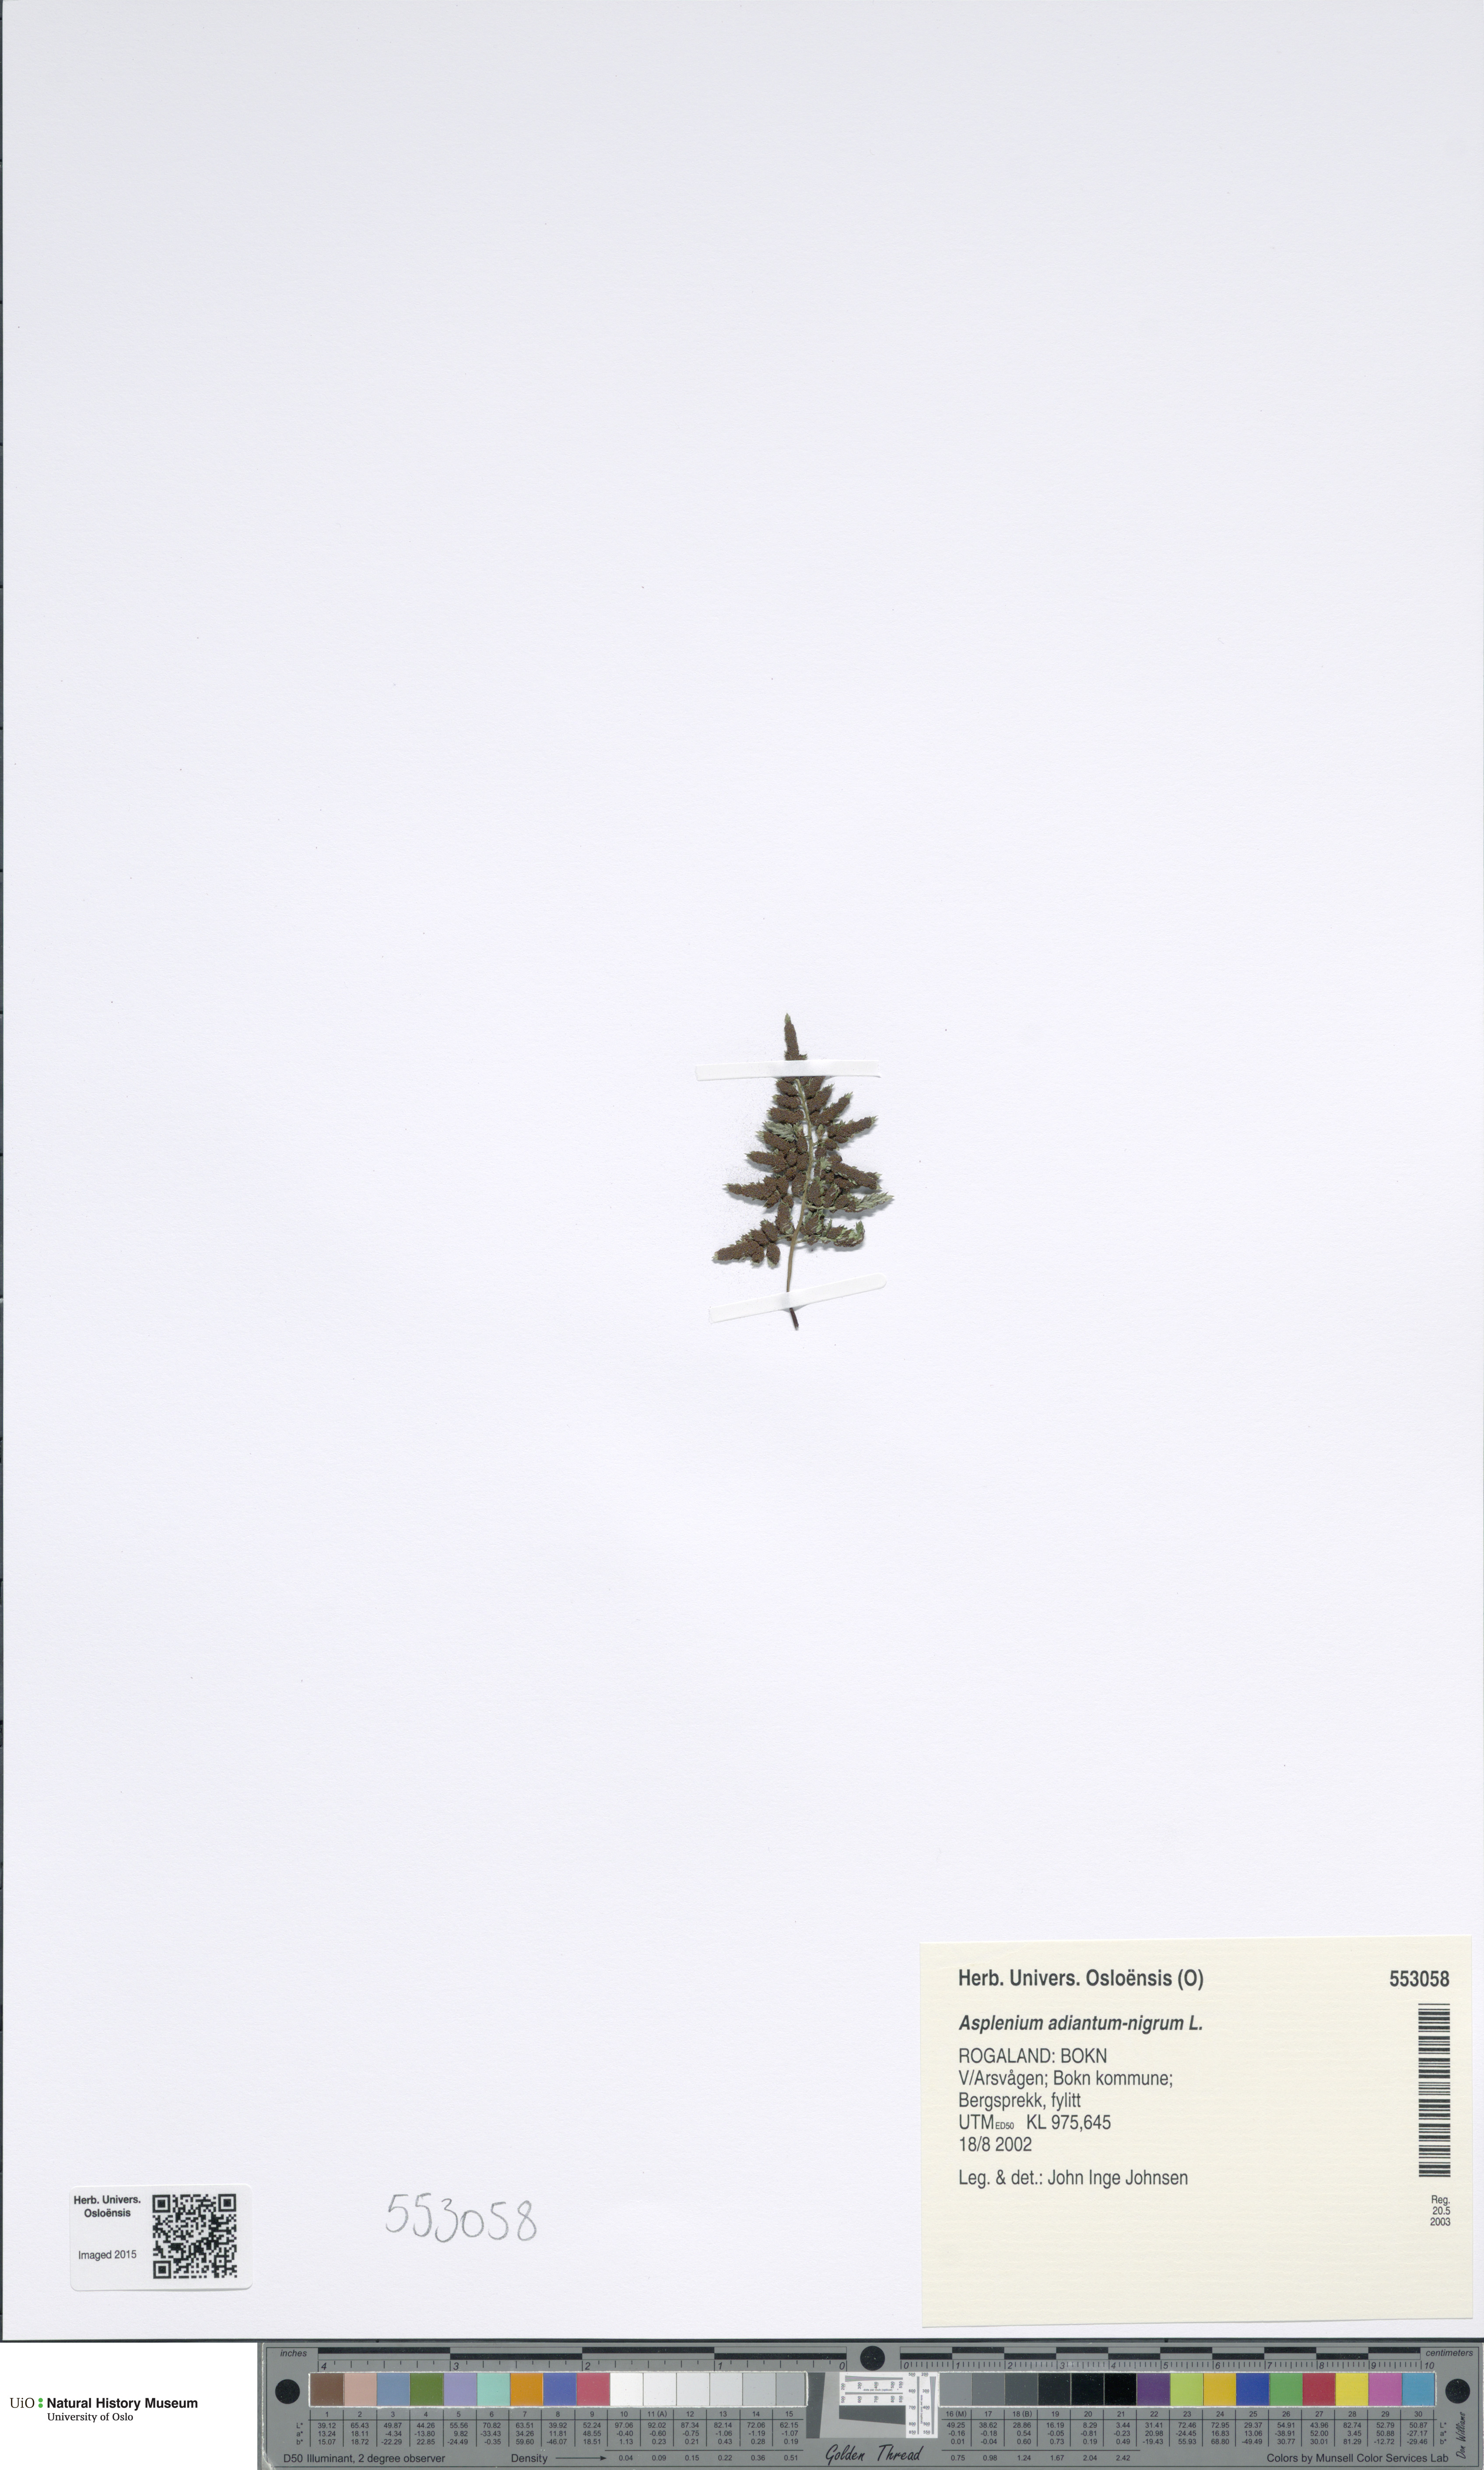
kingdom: Plantae
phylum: Tracheophyta
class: Polypodiopsida
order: Polypodiales
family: Aspleniaceae
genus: Asplenium
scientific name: Asplenium adiantum-nigrum
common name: Black spleenwort
